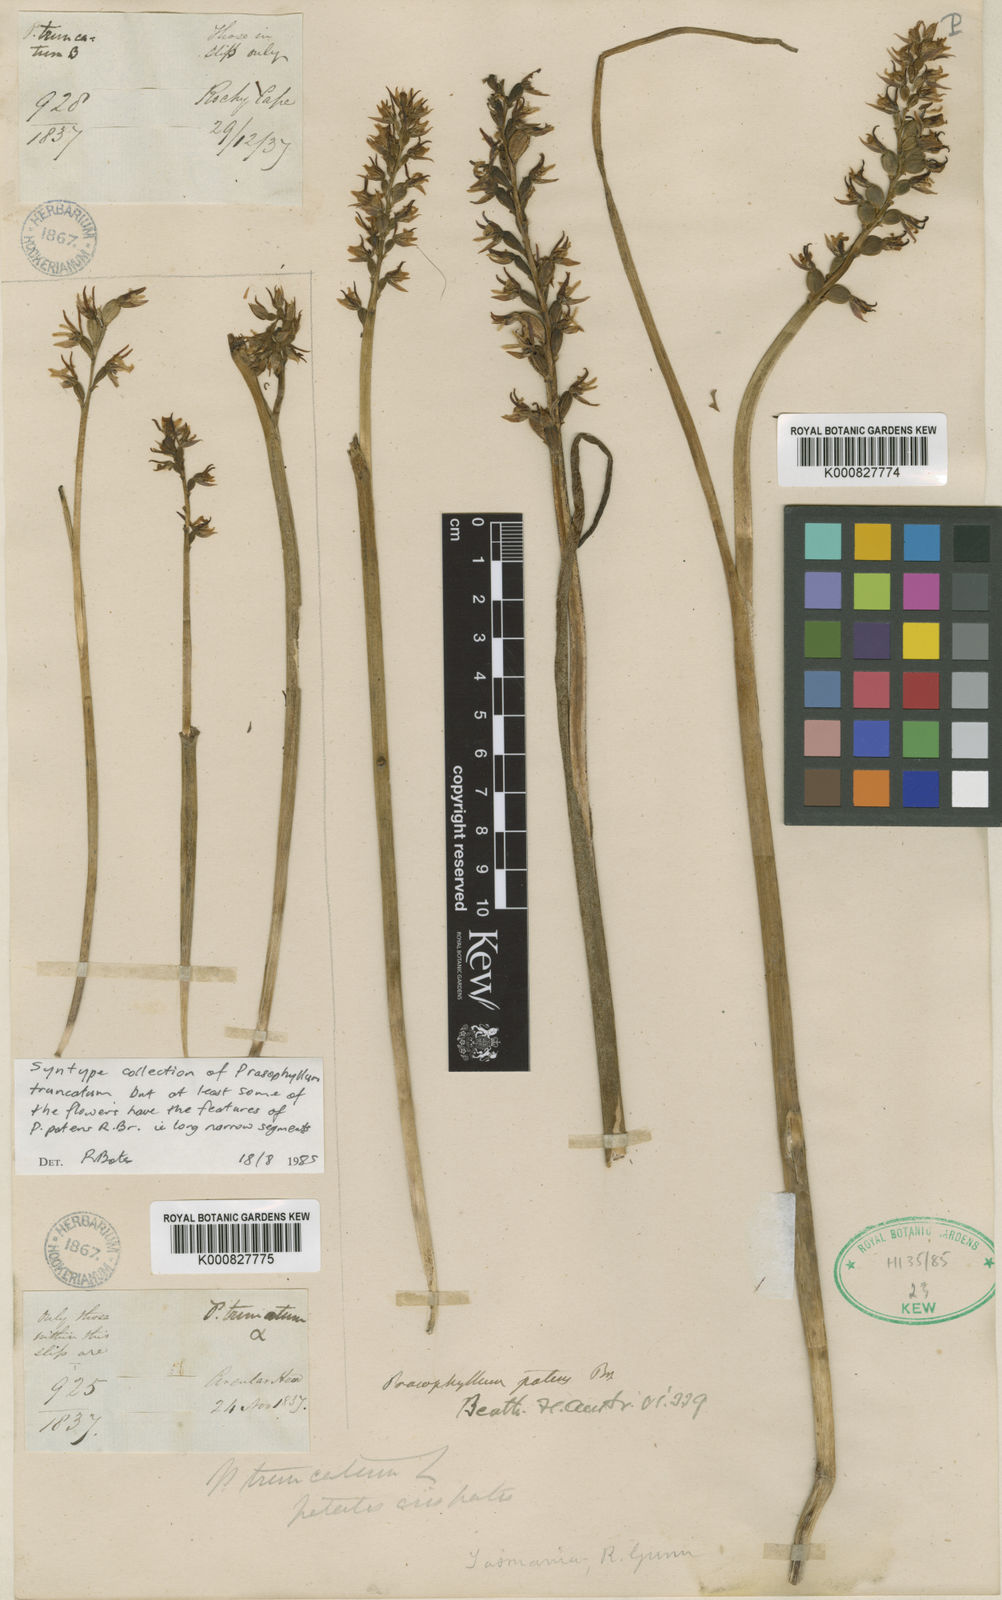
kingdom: Plantae
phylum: Tracheophyta
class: Liliopsida
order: Asparagales
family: Orchidaceae
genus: Prasophyllum
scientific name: Prasophyllum truncatum
